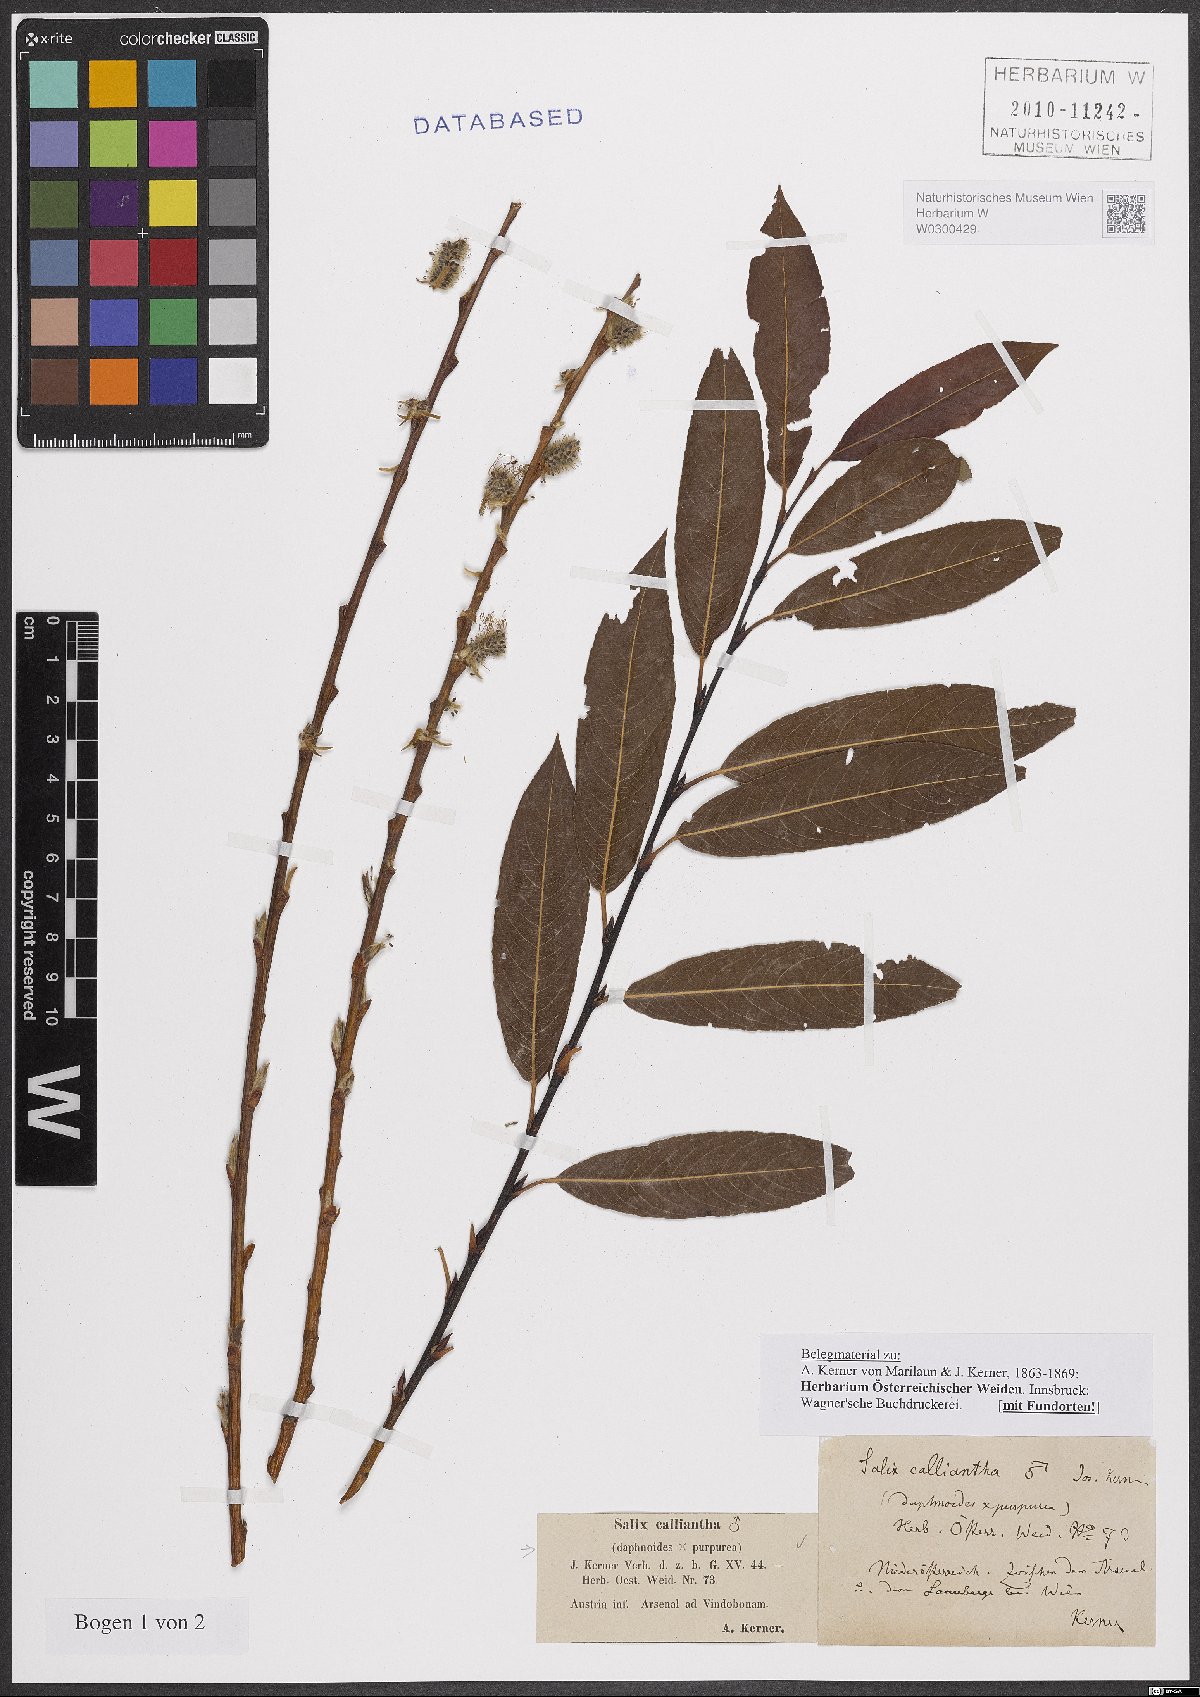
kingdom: Plantae
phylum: Tracheophyta
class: Magnoliopsida
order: Malpighiales
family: Salicaceae
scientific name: Salicaceae
